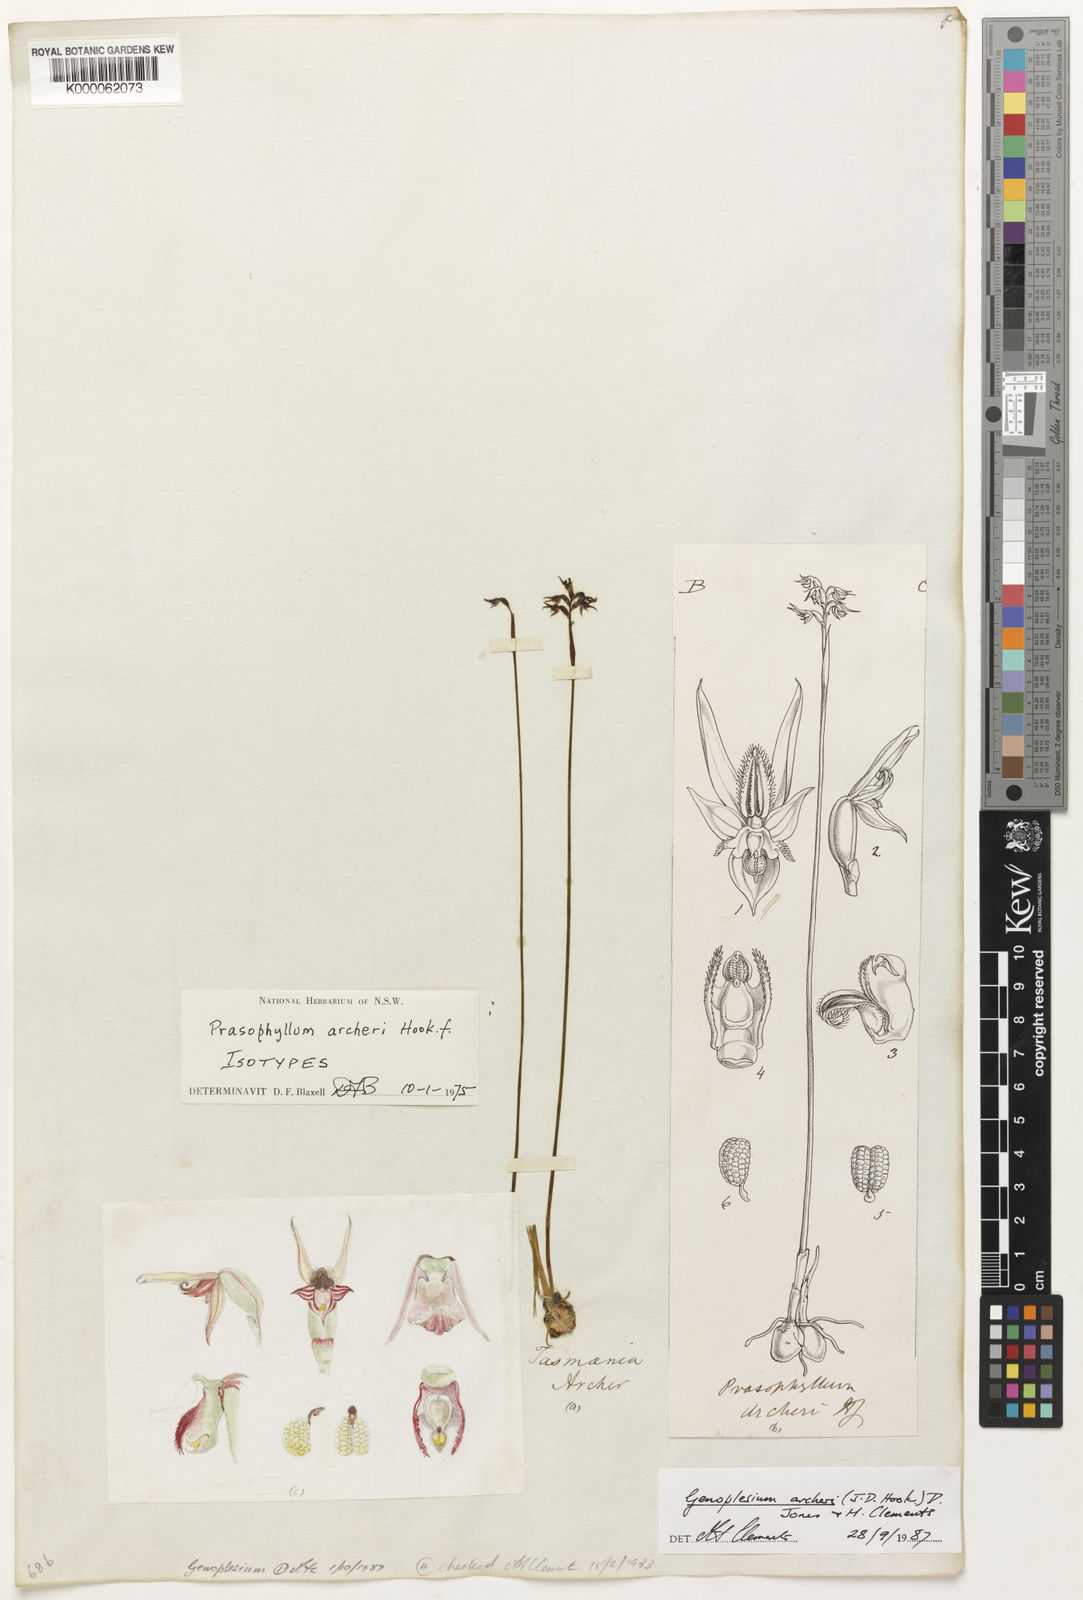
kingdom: Plantae
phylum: Tracheophyta
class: Liliopsida
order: Asparagales
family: Orchidaceae
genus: Genoplesium
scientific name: Genoplesium archeri
